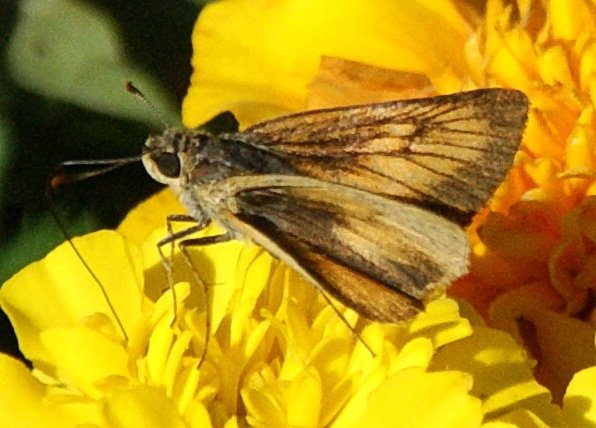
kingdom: Animalia
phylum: Arthropoda
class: Insecta
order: Lepidoptera
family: Hesperiidae
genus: Atrytone
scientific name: Atrytone delaware
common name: Delaware Skipper
